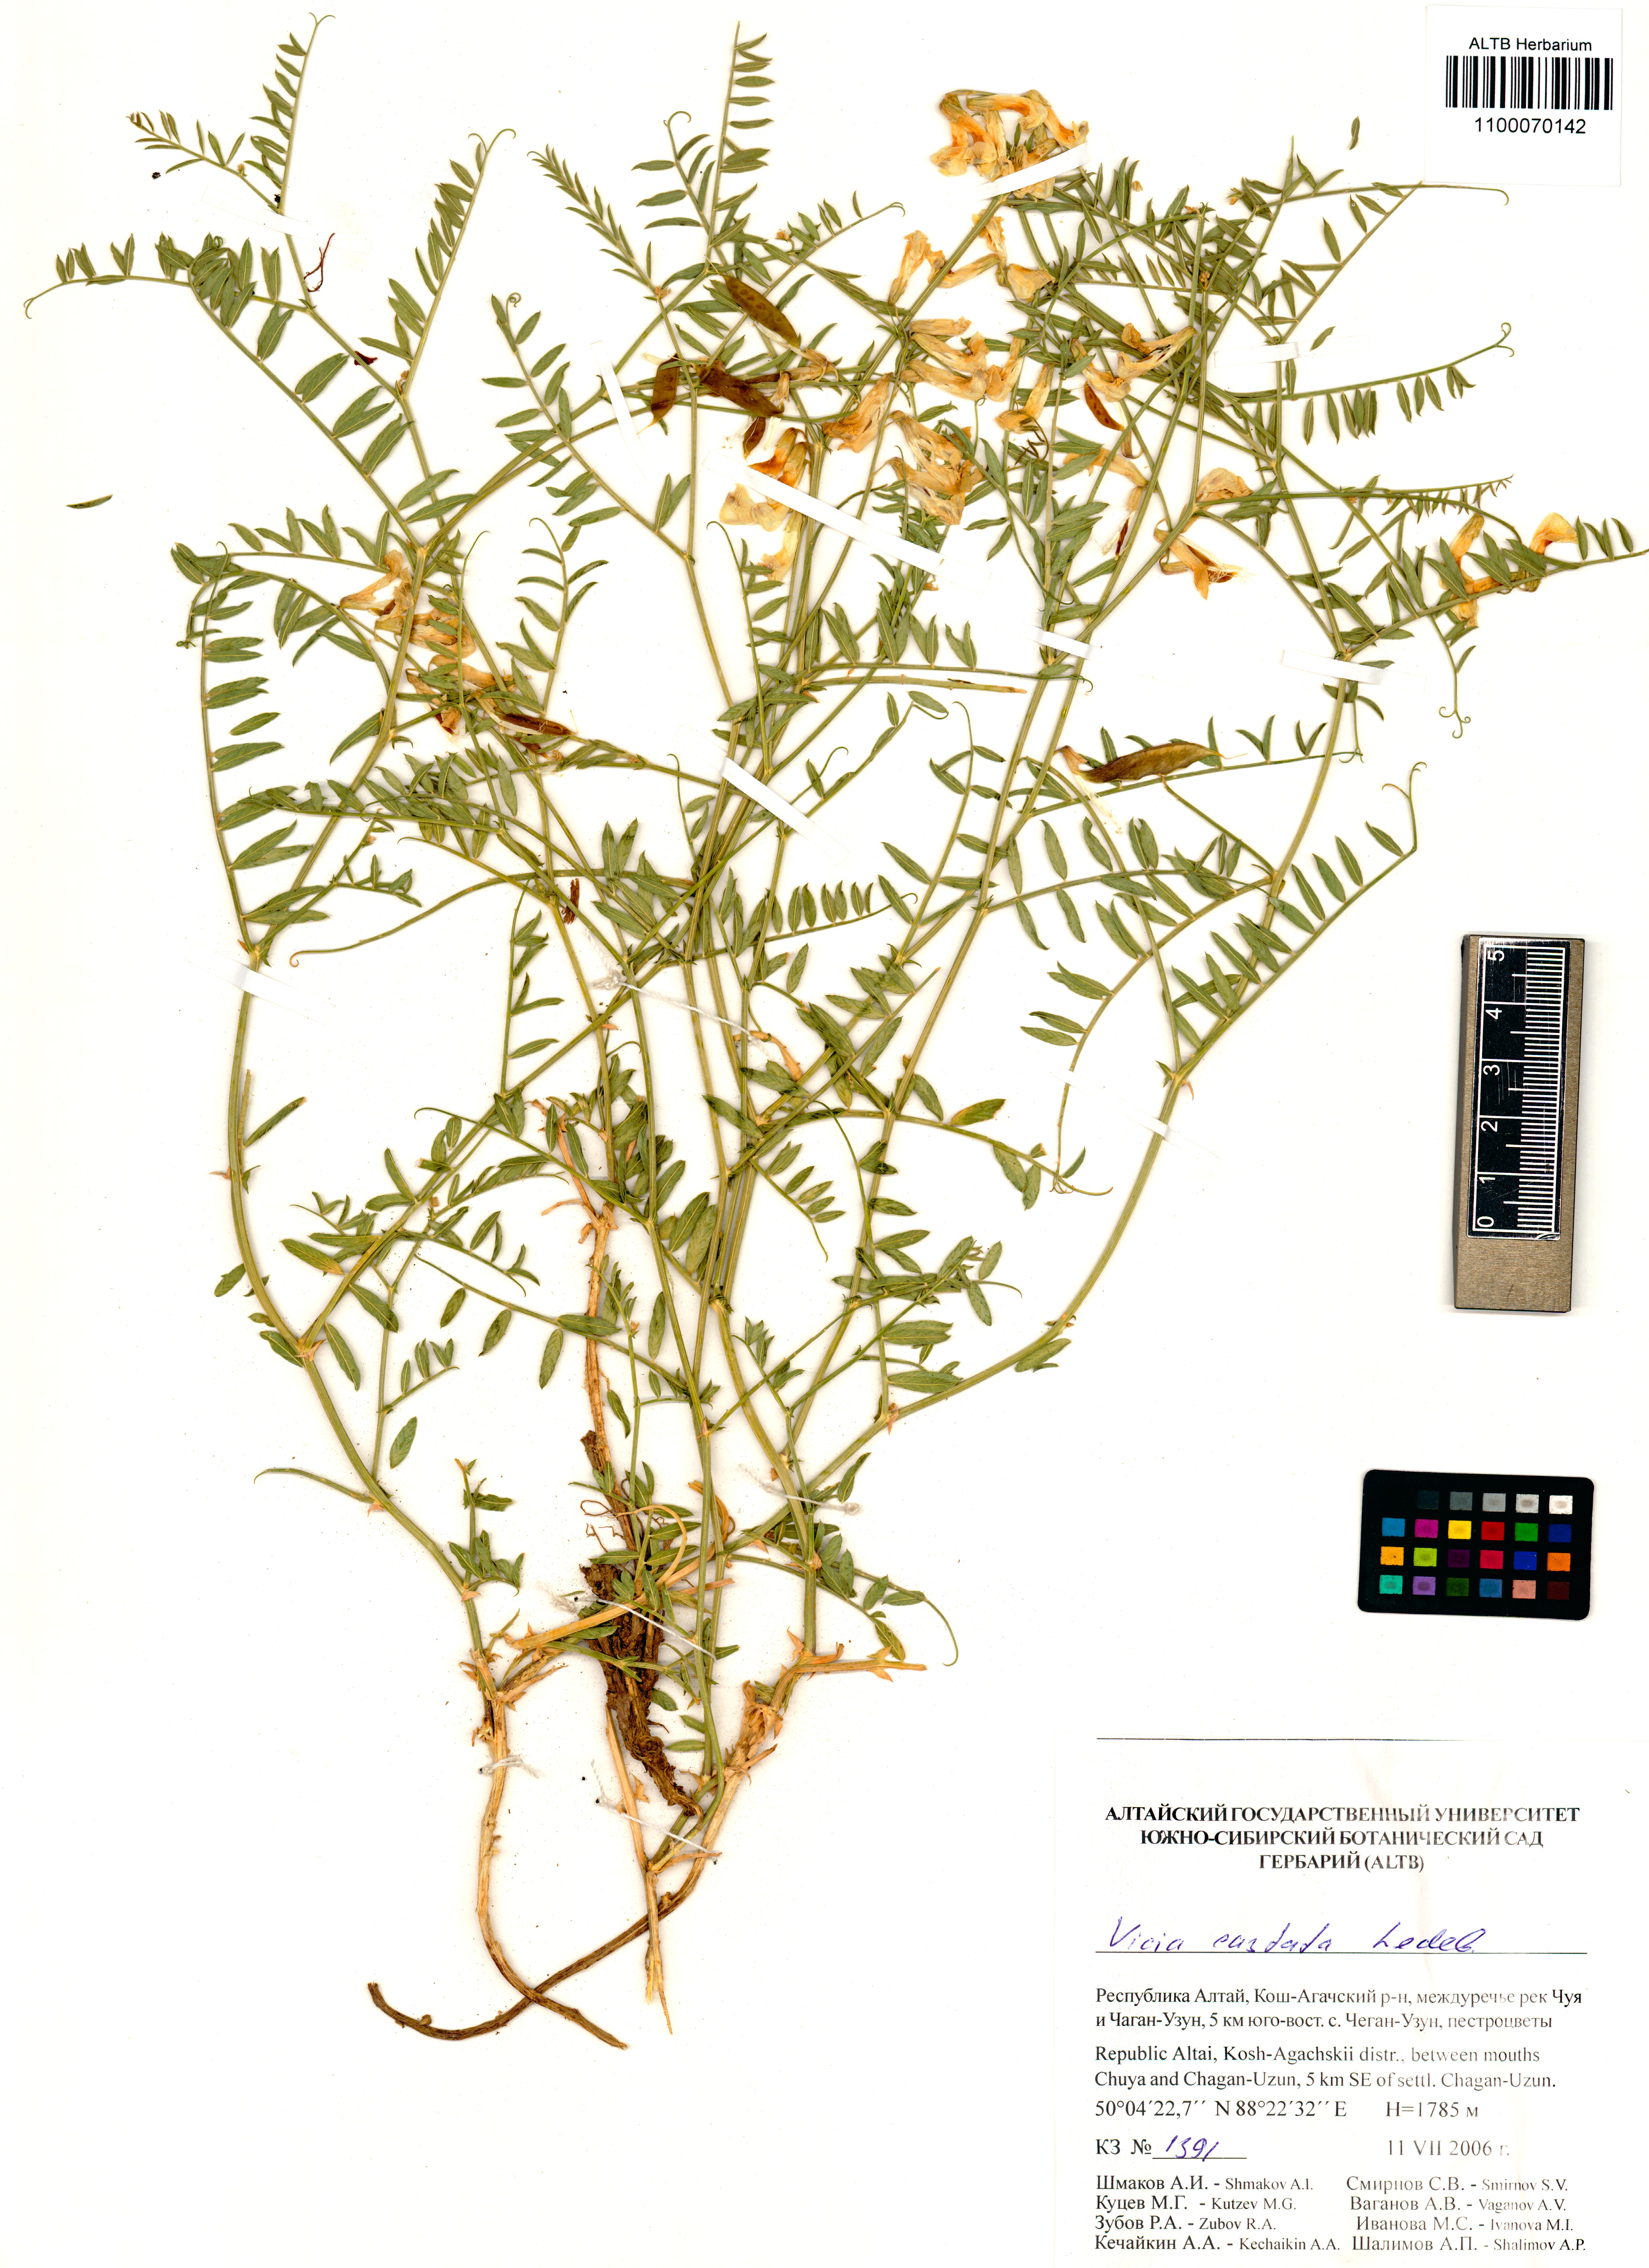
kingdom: Plantae
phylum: Tracheophyta
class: Magnoliopsida
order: Fabales
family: Fabaceae
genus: Vicia
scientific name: Vicia costata
